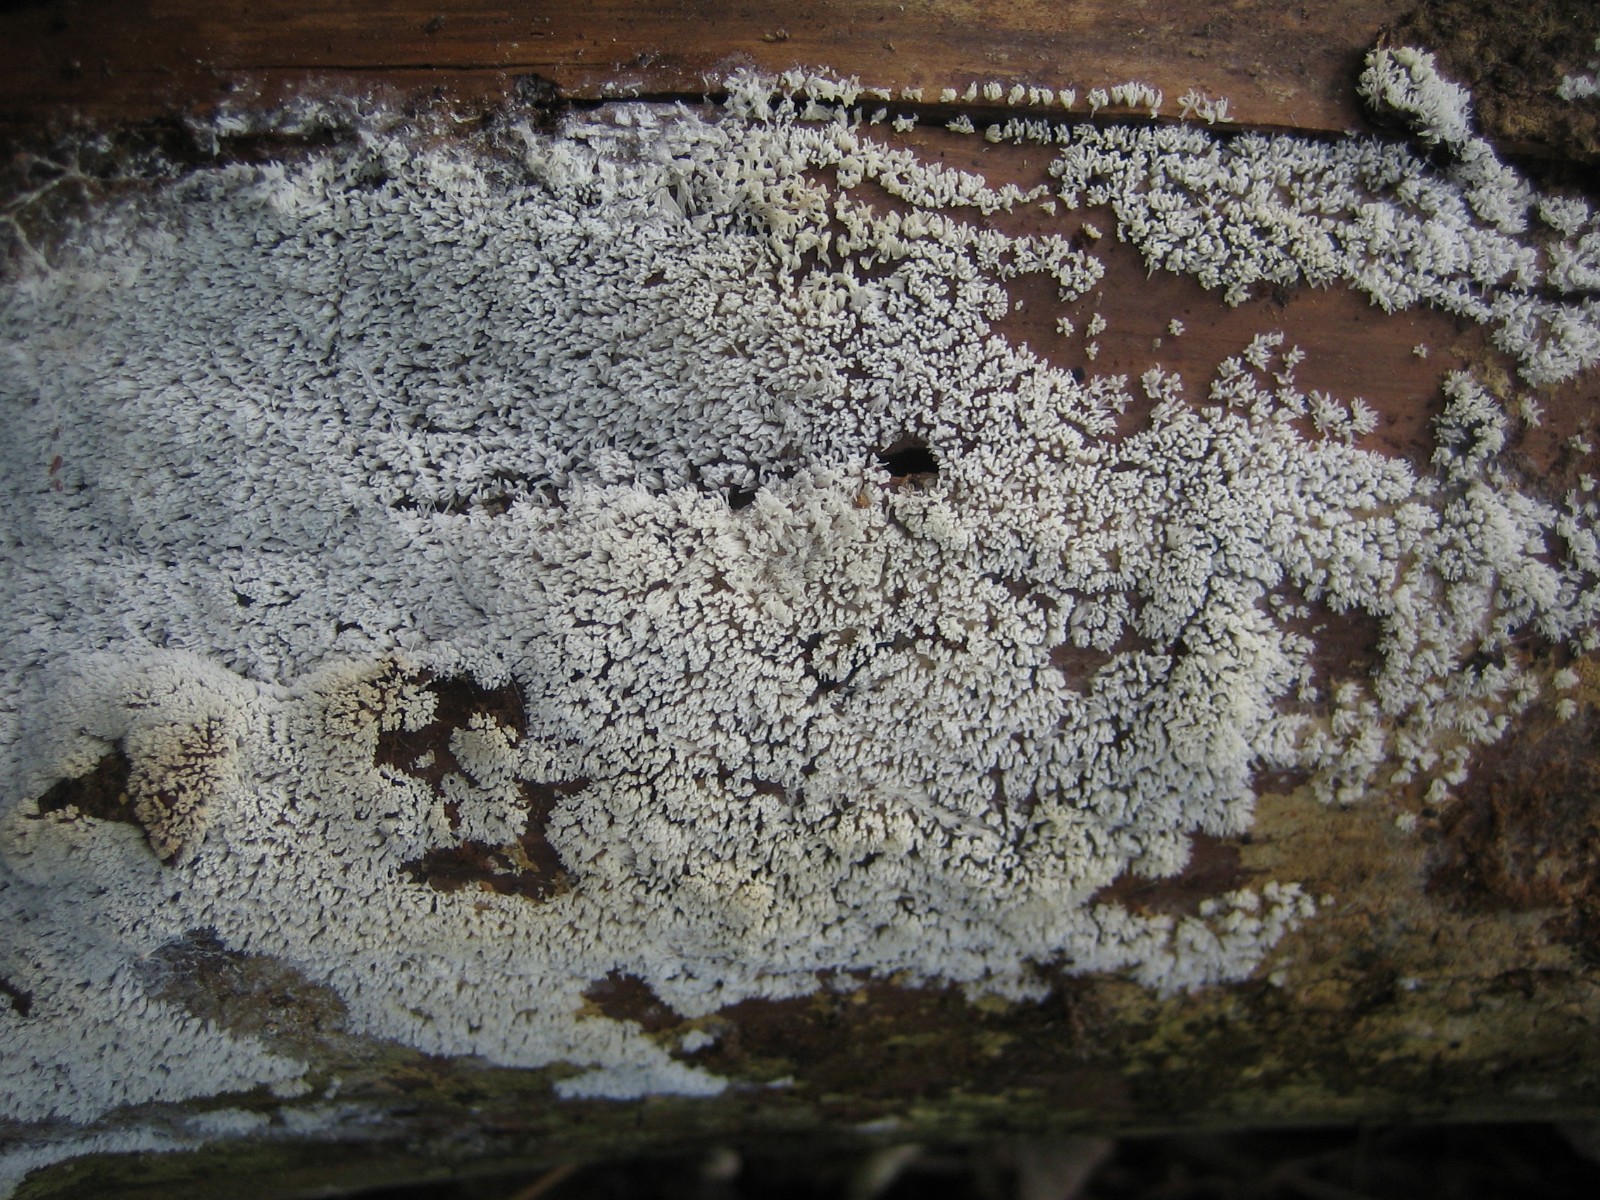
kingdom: Protozoa
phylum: Mycetozoa
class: Protosteliomycetes
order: Ceratiomyxales
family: Ceratiomyxaceae
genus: Ceratiomyxa
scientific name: Ceratiomyxa fruticulosa
